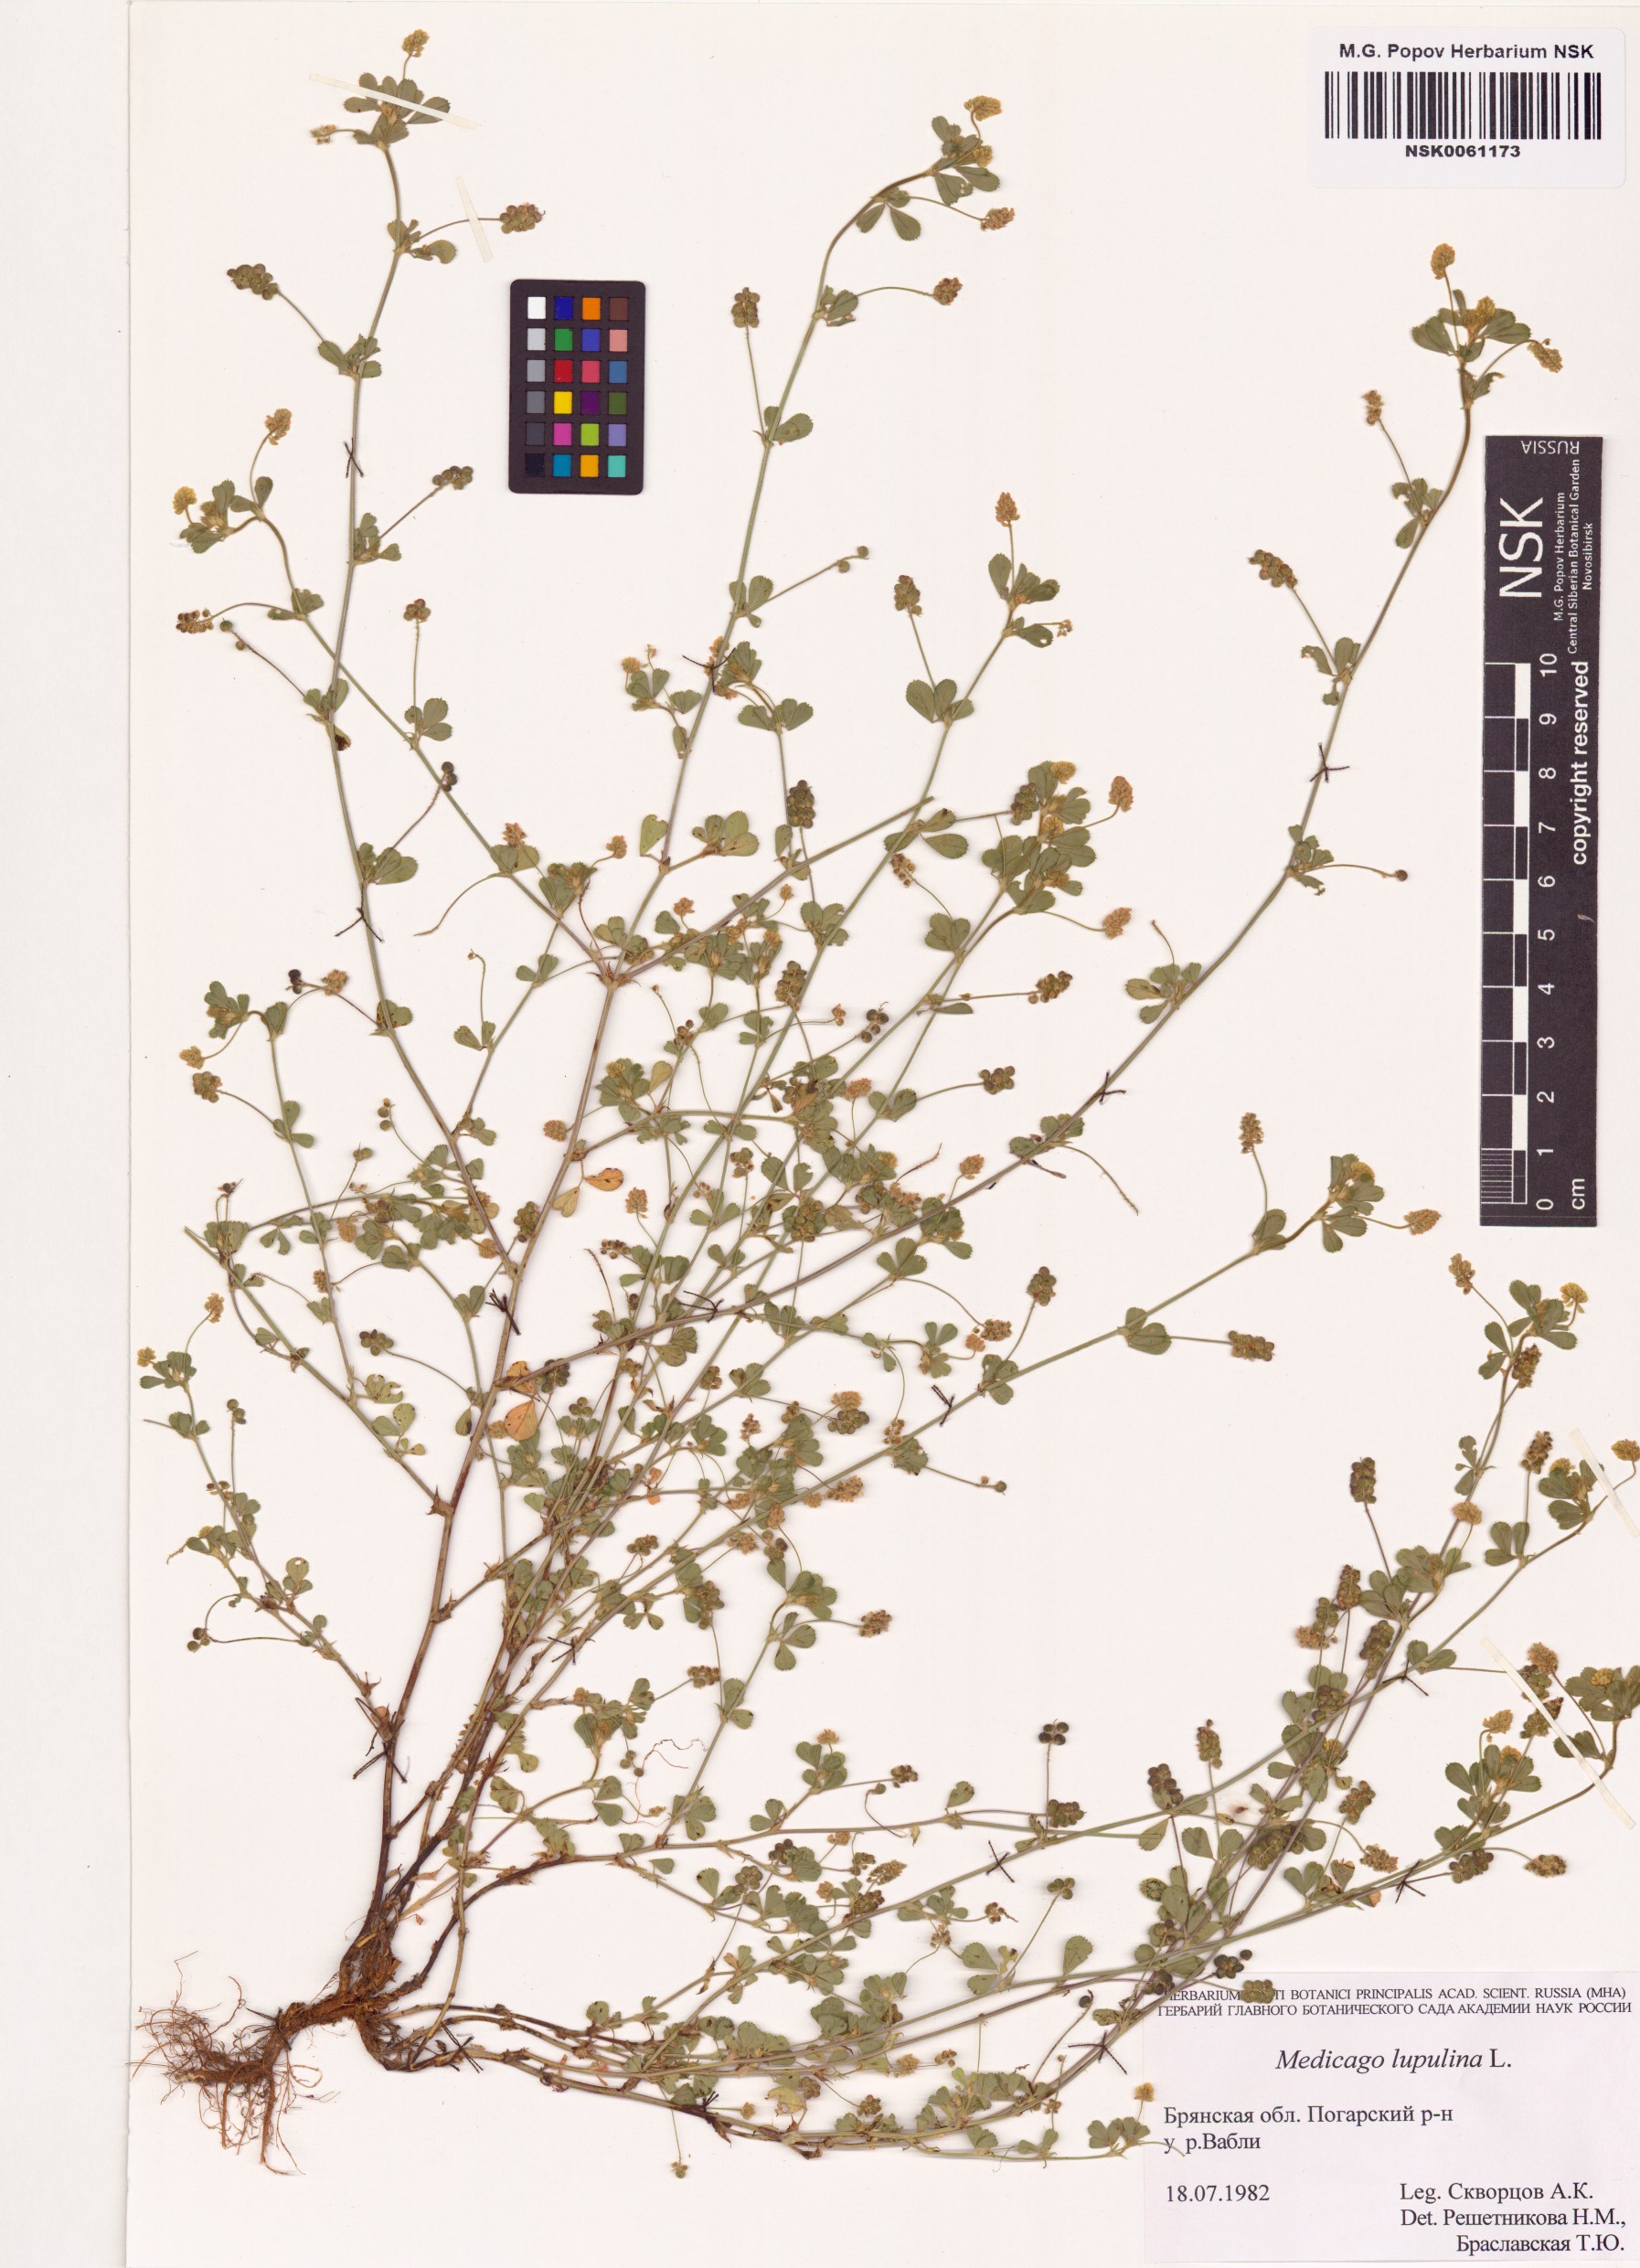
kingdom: Plantae
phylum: Tracheophyta
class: Magnoliopsida
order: Fabales
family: Fabaceae
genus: Medicago
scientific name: Medicago lupulina
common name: Black medick
